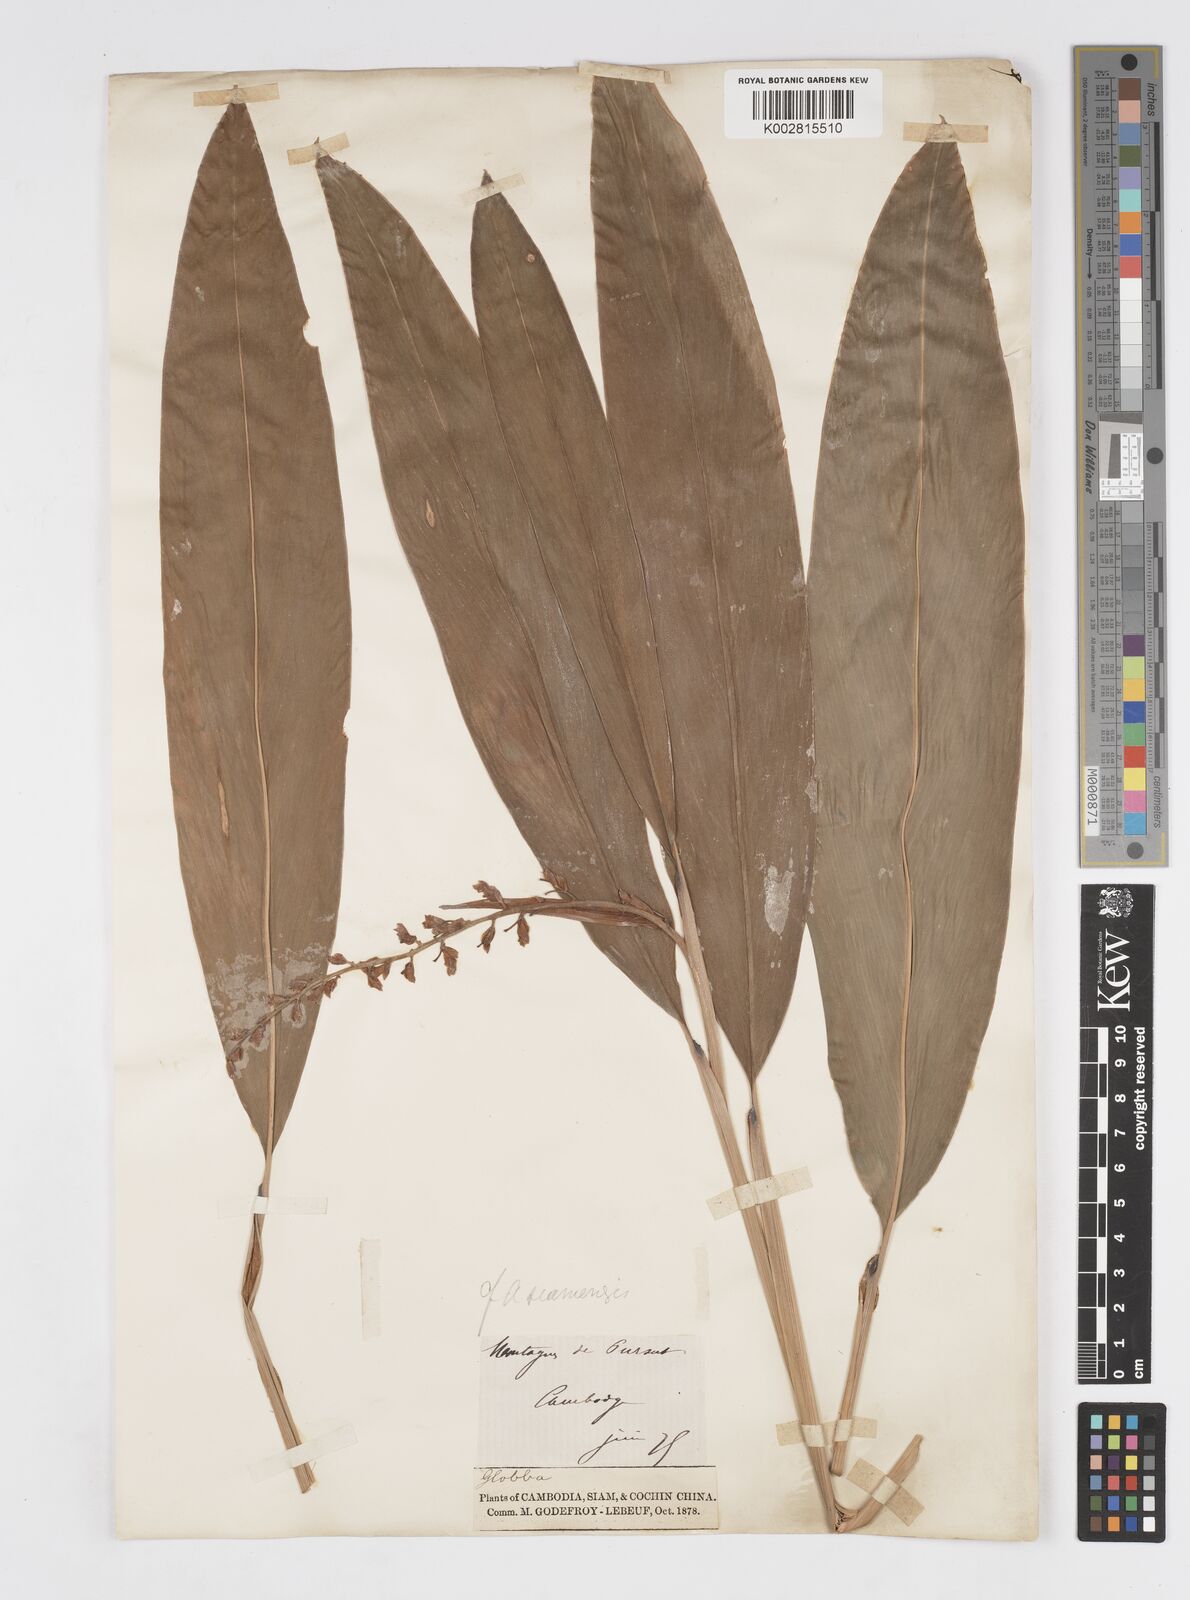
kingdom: Plantae
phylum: Tracheophyta
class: Liliopsida
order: Zingiberales
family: Zingiberaceae
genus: Alpinia
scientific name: Alpinia siamensis
